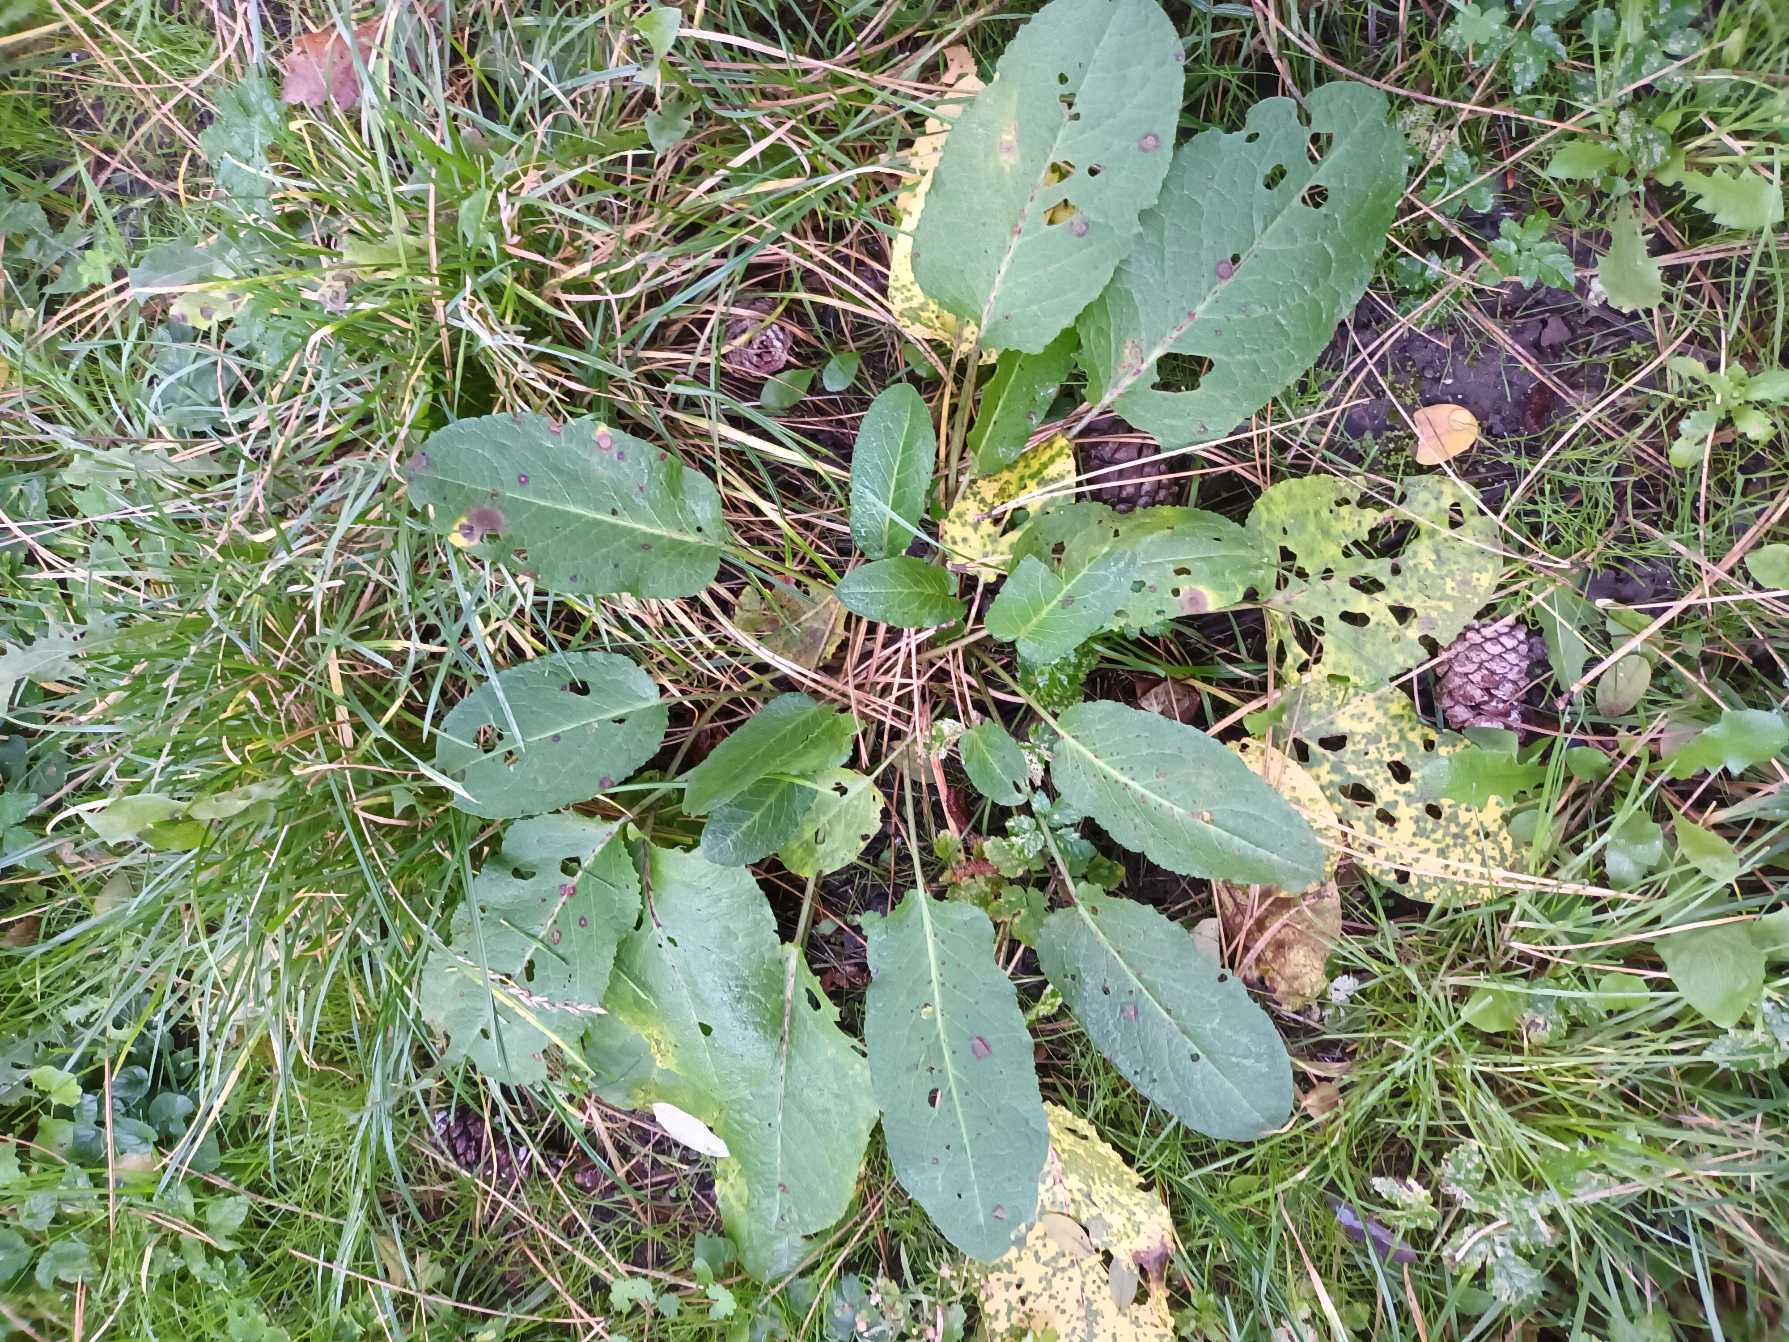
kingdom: Plantae
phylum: Tracheophyta
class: Magnoliopsida
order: Caryophyllales
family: Polygonaceae
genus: Rumex
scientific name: Rumex obtusifolius
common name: Butbladet skræppe
